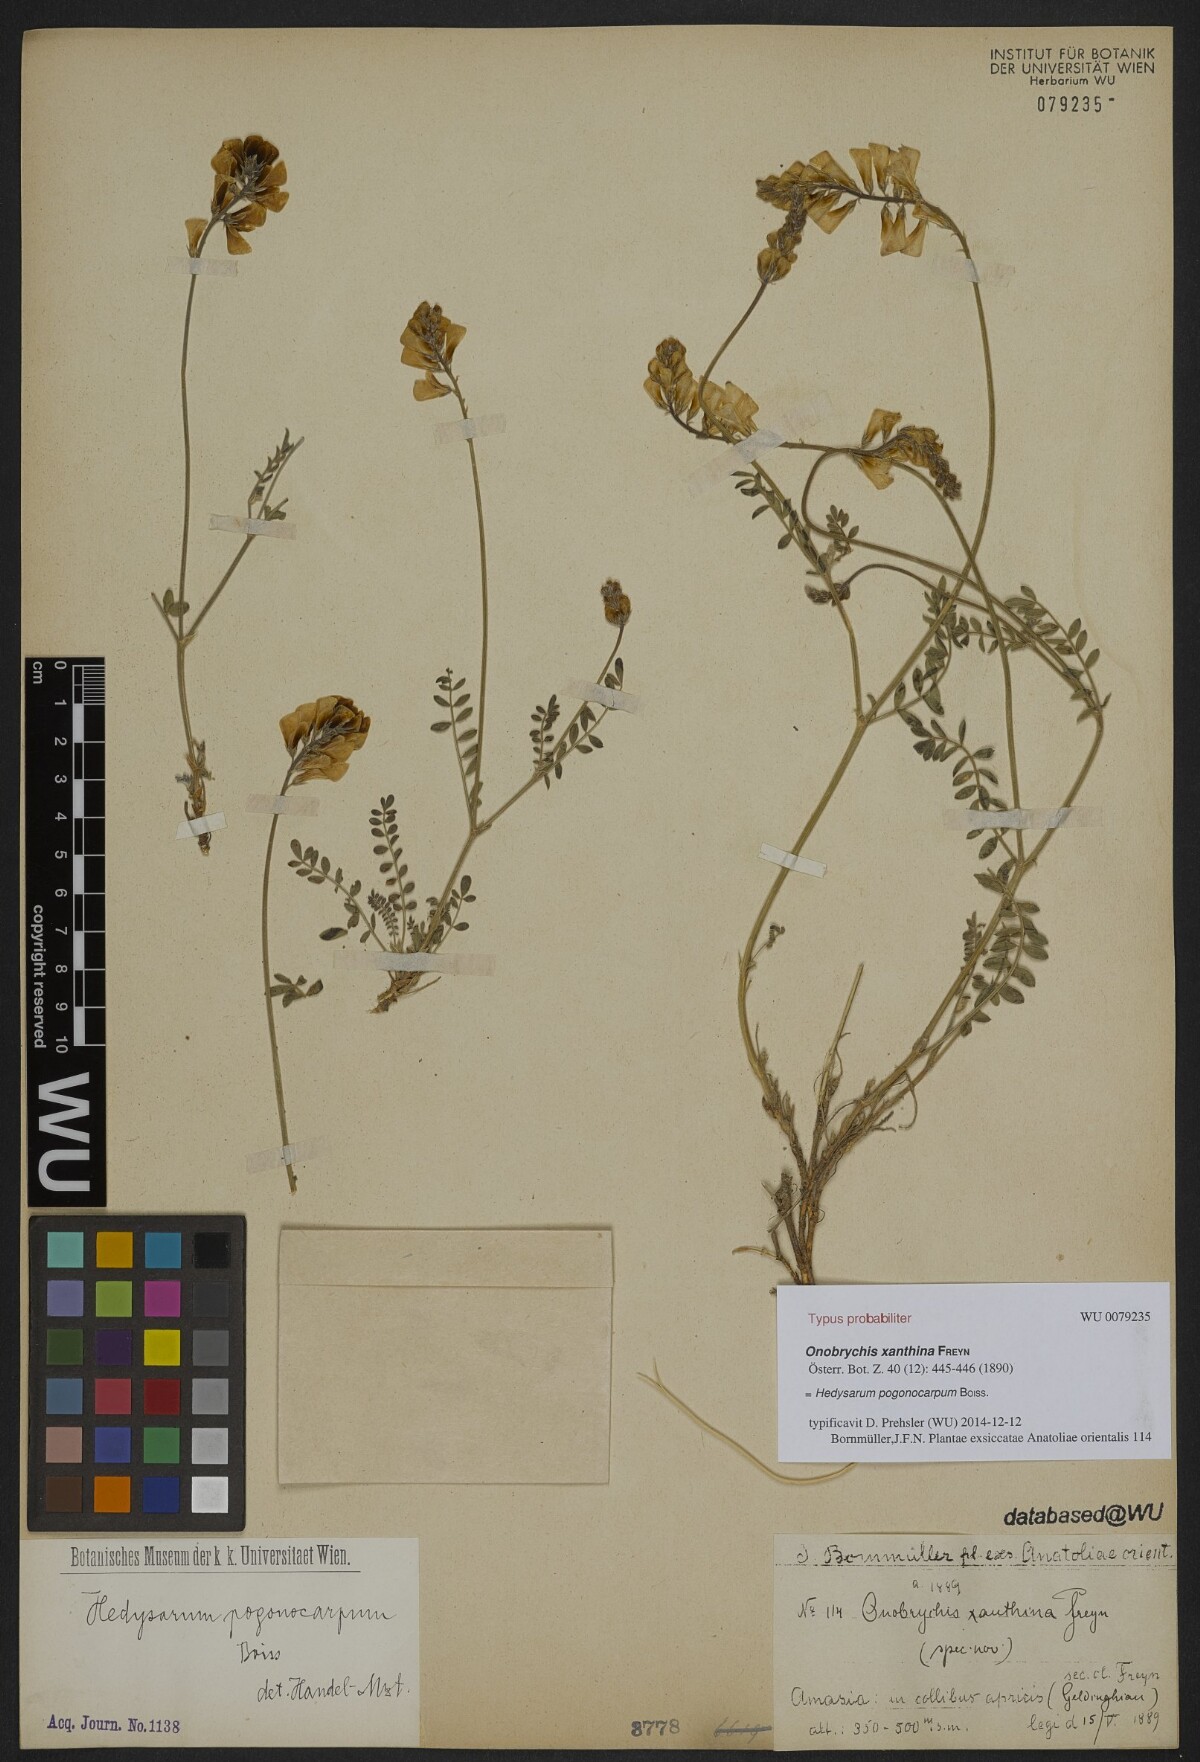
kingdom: Plantae
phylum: Tracheophyta
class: Magnoliopsida
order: Fabales
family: Fabaceae
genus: Hedysarum
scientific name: Hedysarum pogonocarpum
